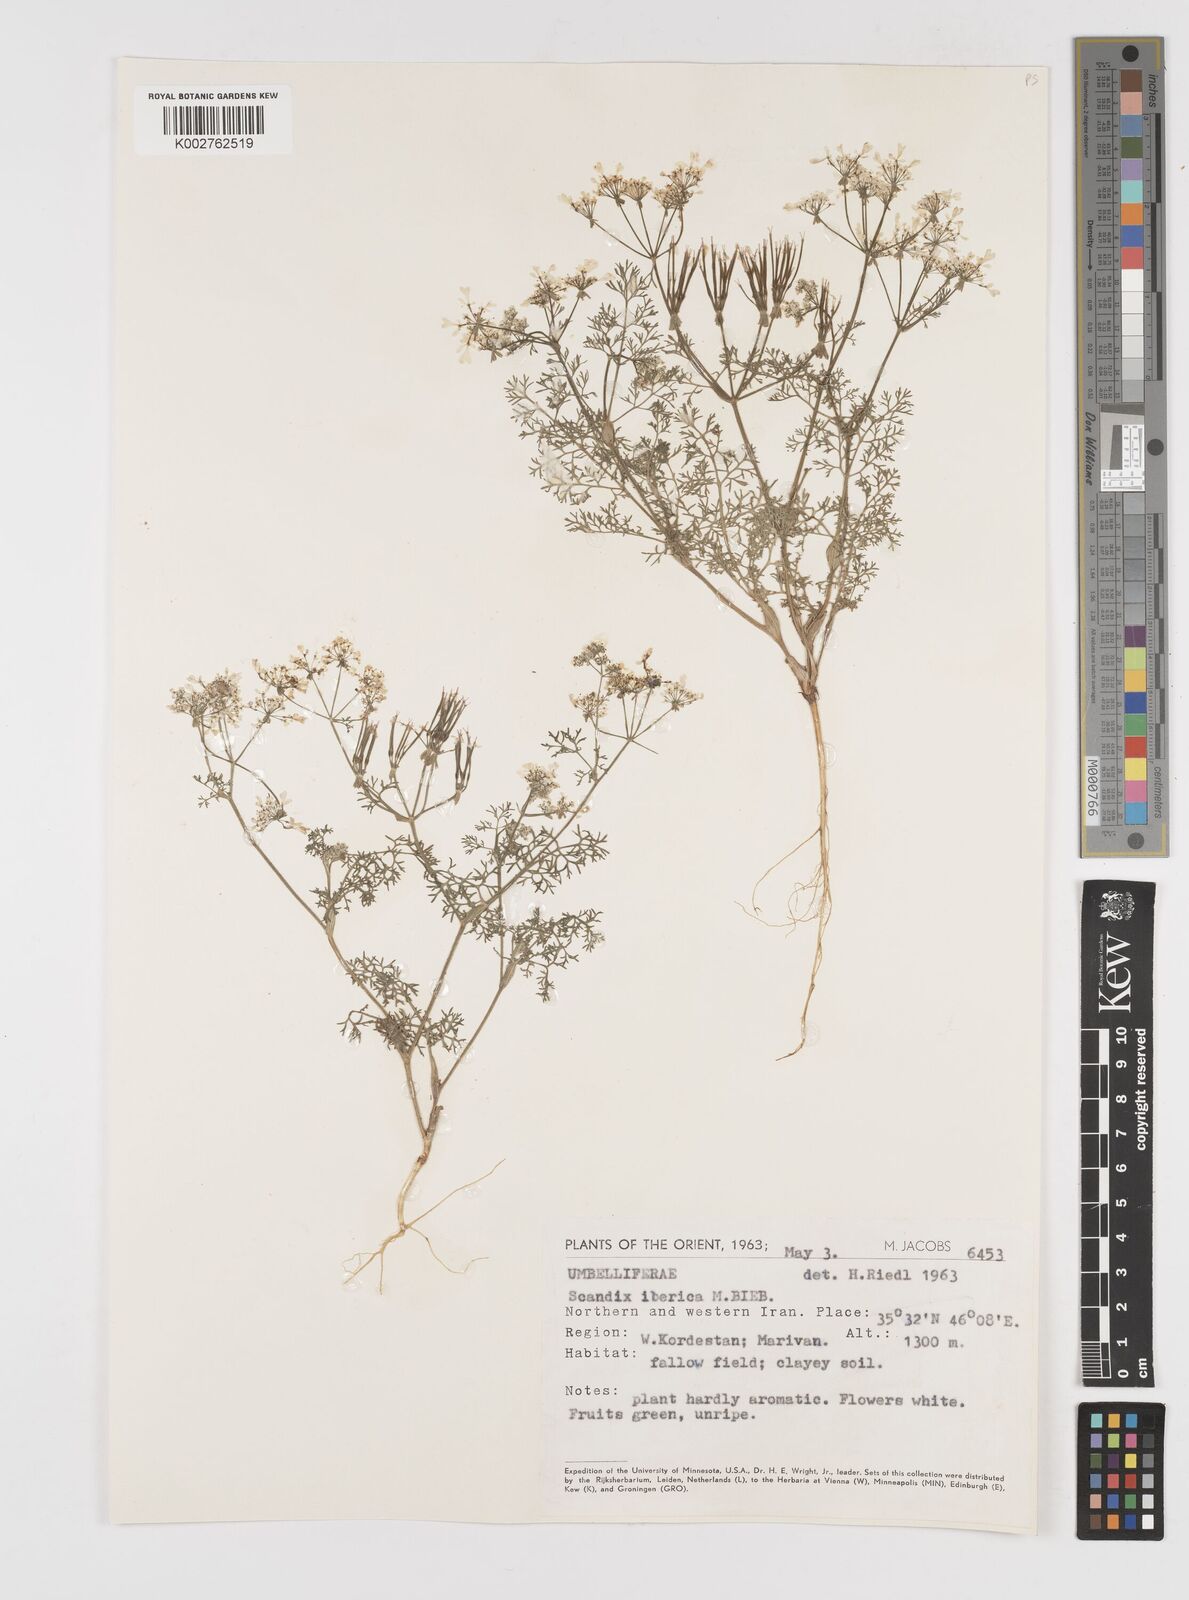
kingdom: Plantae
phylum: Tracheophyta
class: Magnoliopsida
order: Apiales
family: Apiaceae
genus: Scandix
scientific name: Scandix iberica
